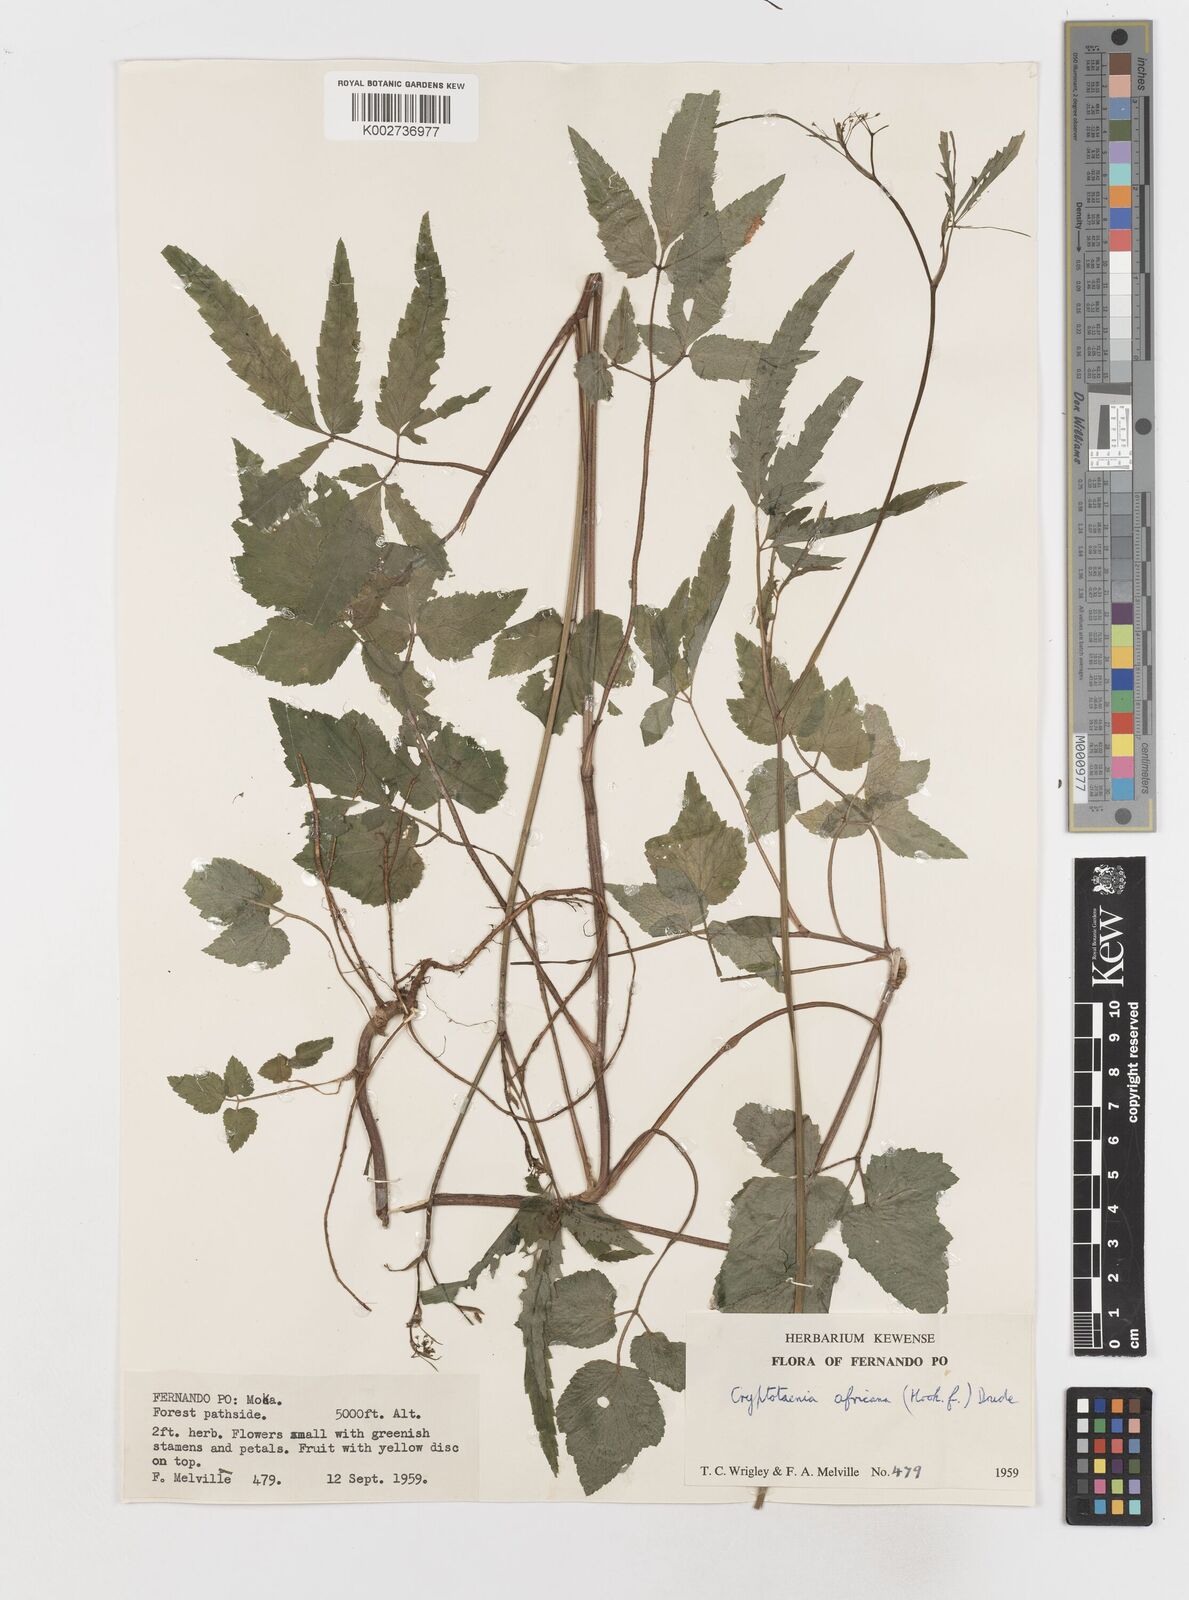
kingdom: Plantae
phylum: Tracheophyta
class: Magnoliopsida
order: Apiales
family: Apiaceae
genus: Cryptotaenia
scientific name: Cryptotaenia africana
